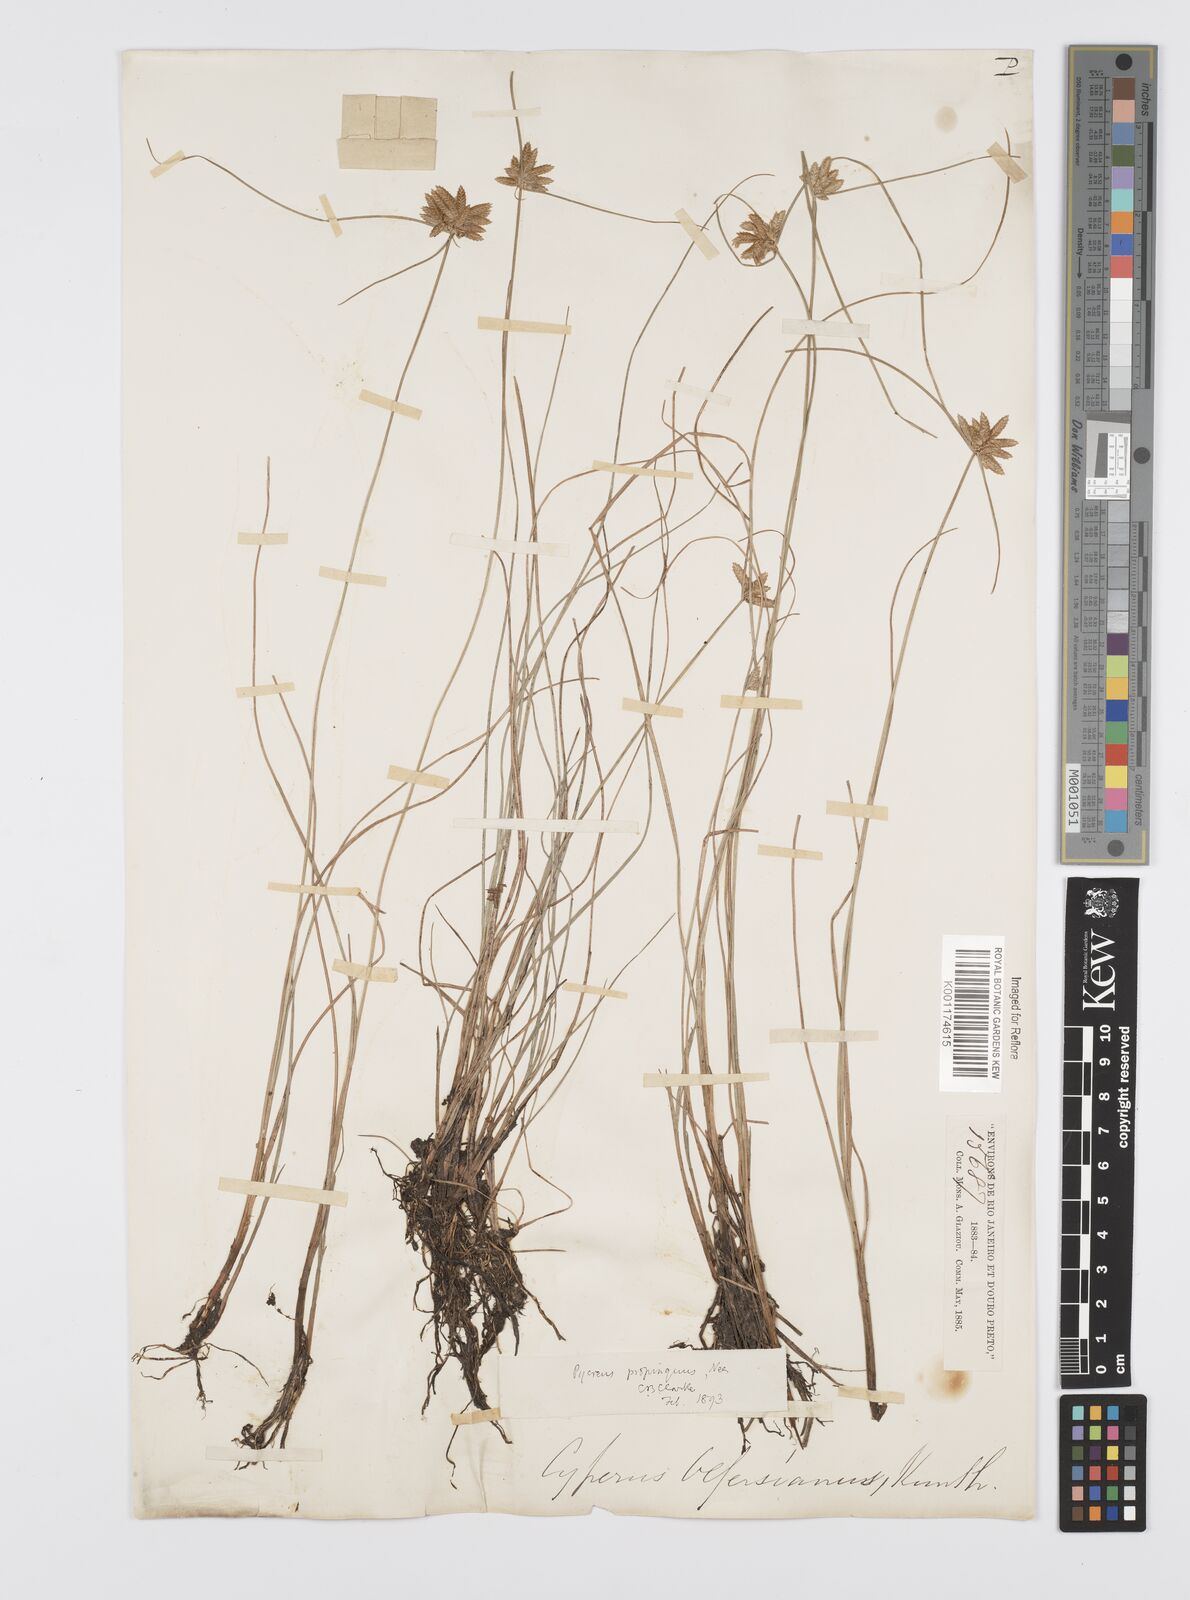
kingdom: Plantae
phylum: Tracheophyta
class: Liliopsida
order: Poales
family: Cyperaceae
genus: Cyperus
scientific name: Cyperus
